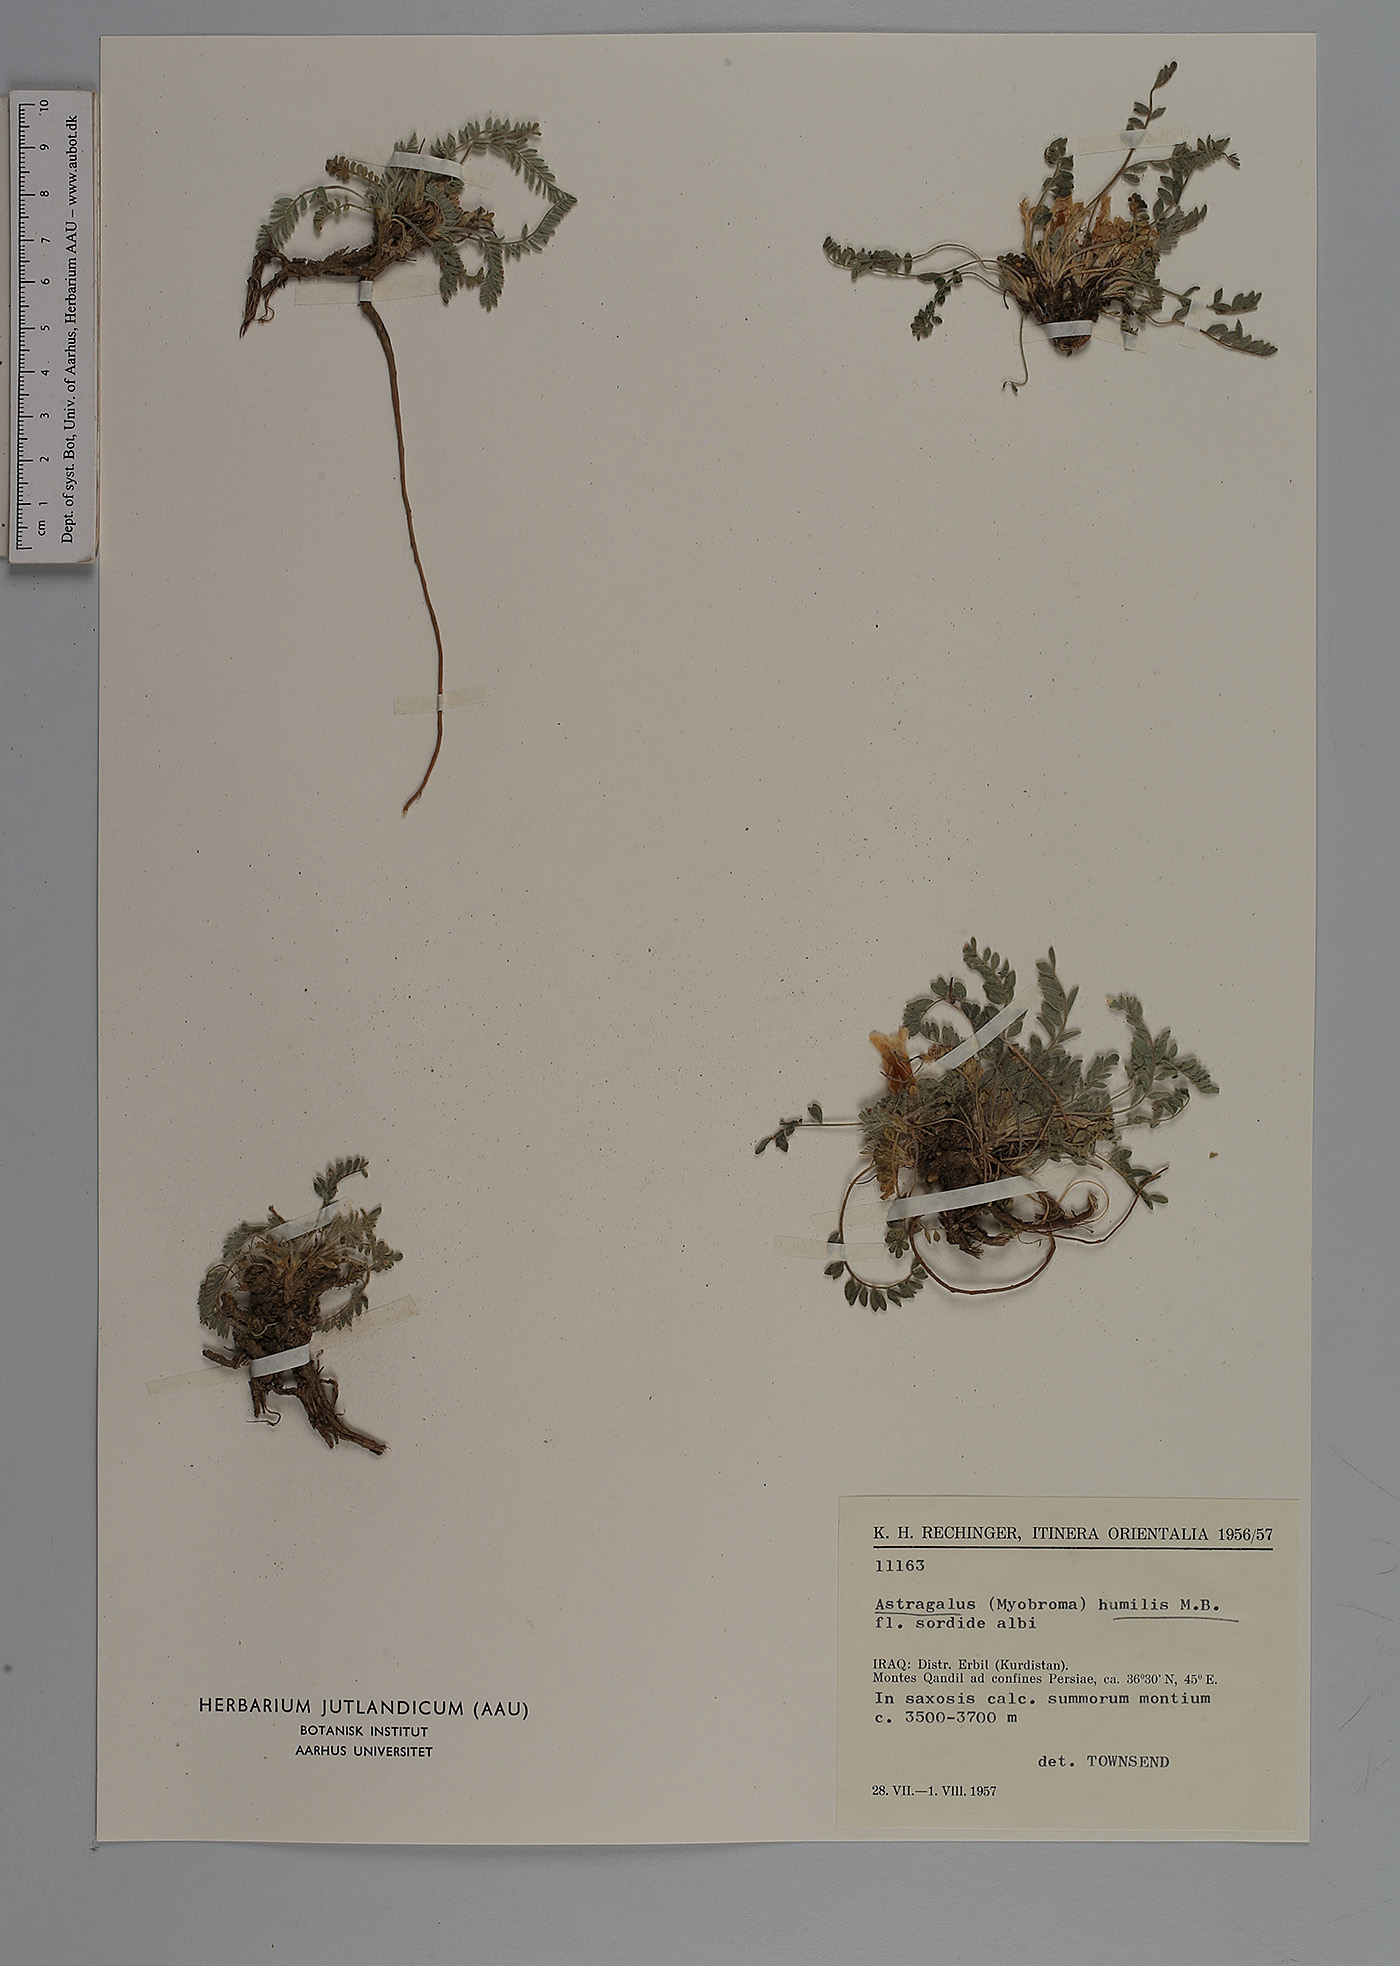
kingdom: Plantae
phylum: Tracheophyta
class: Magnoliopsida
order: Fabales
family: Fabaceae
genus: Astragalus
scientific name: Astragalus humilis
